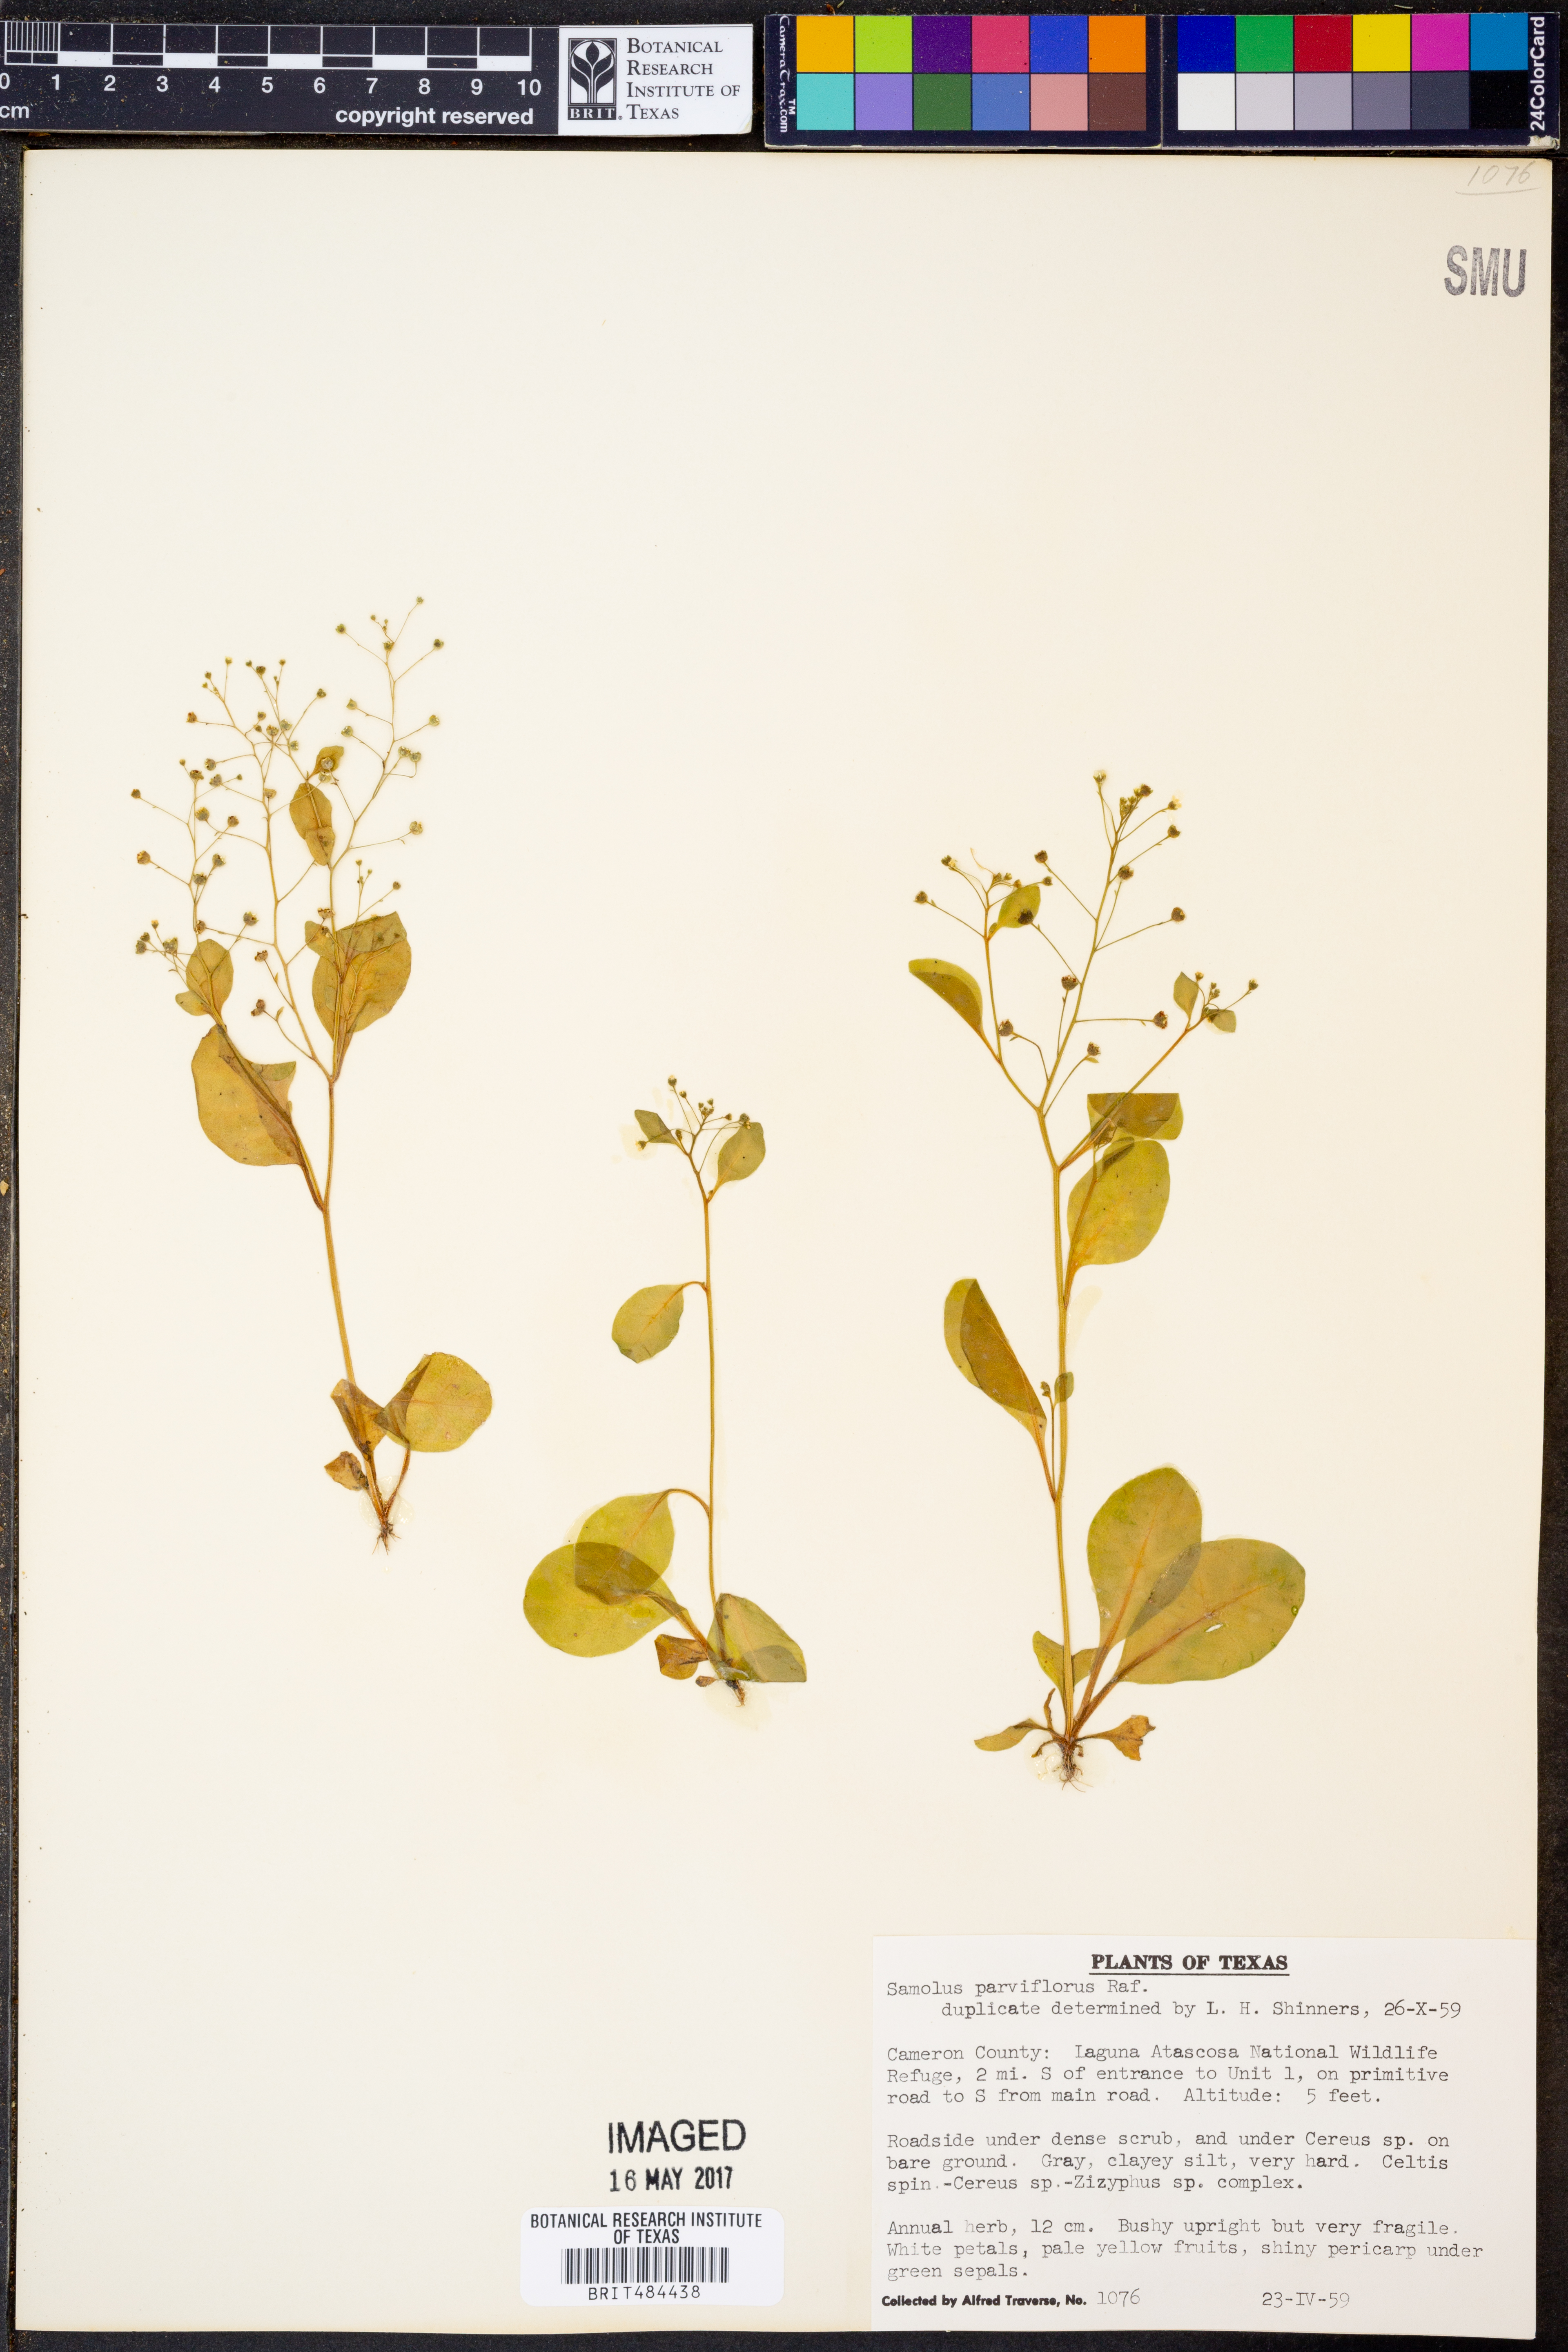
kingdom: Plantae
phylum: Tracheophyta
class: Magnoliopsida
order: Ericales
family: Primulaceae
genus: Samolus
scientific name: Samolus parviflorus
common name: False water pimpernel
